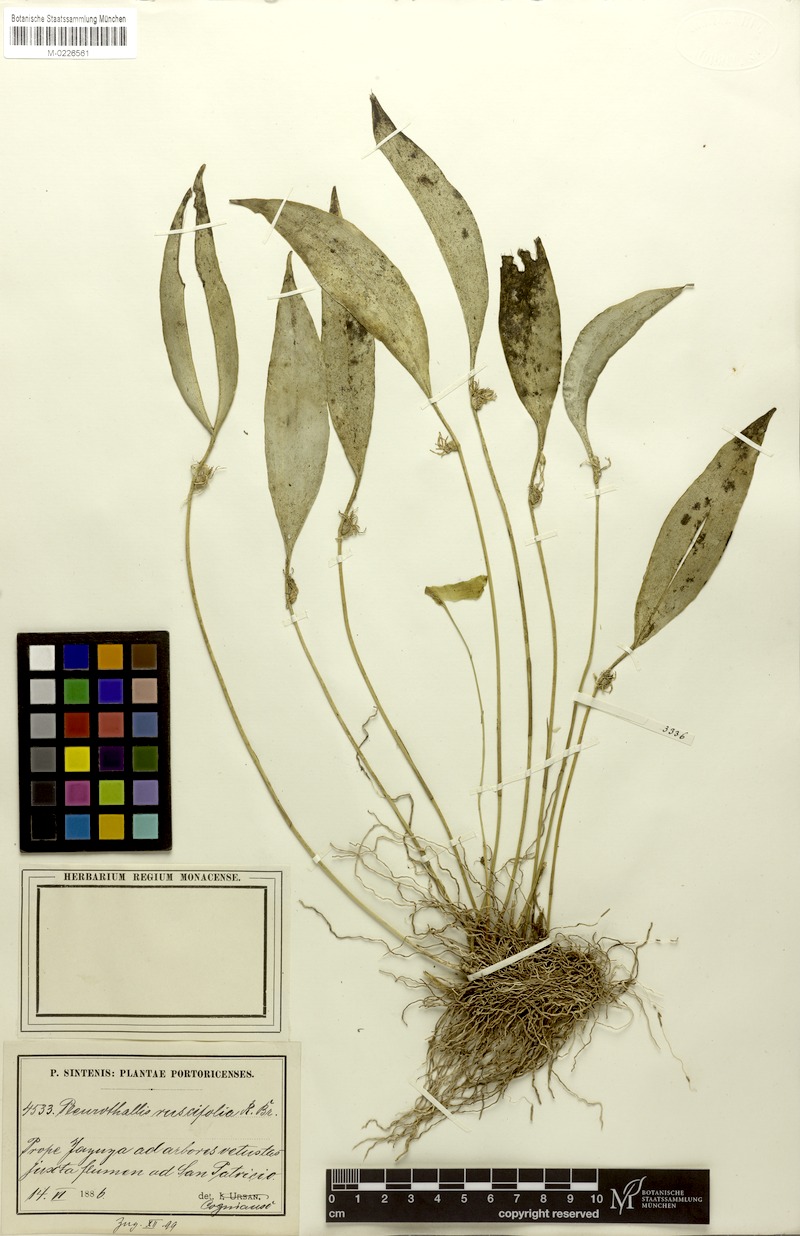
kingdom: Plantae
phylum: Tracheophyta
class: Liliopsida
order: Asparagales
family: Orchidaceae
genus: Pleurothallis
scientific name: Pleurothallis ruscifolia
